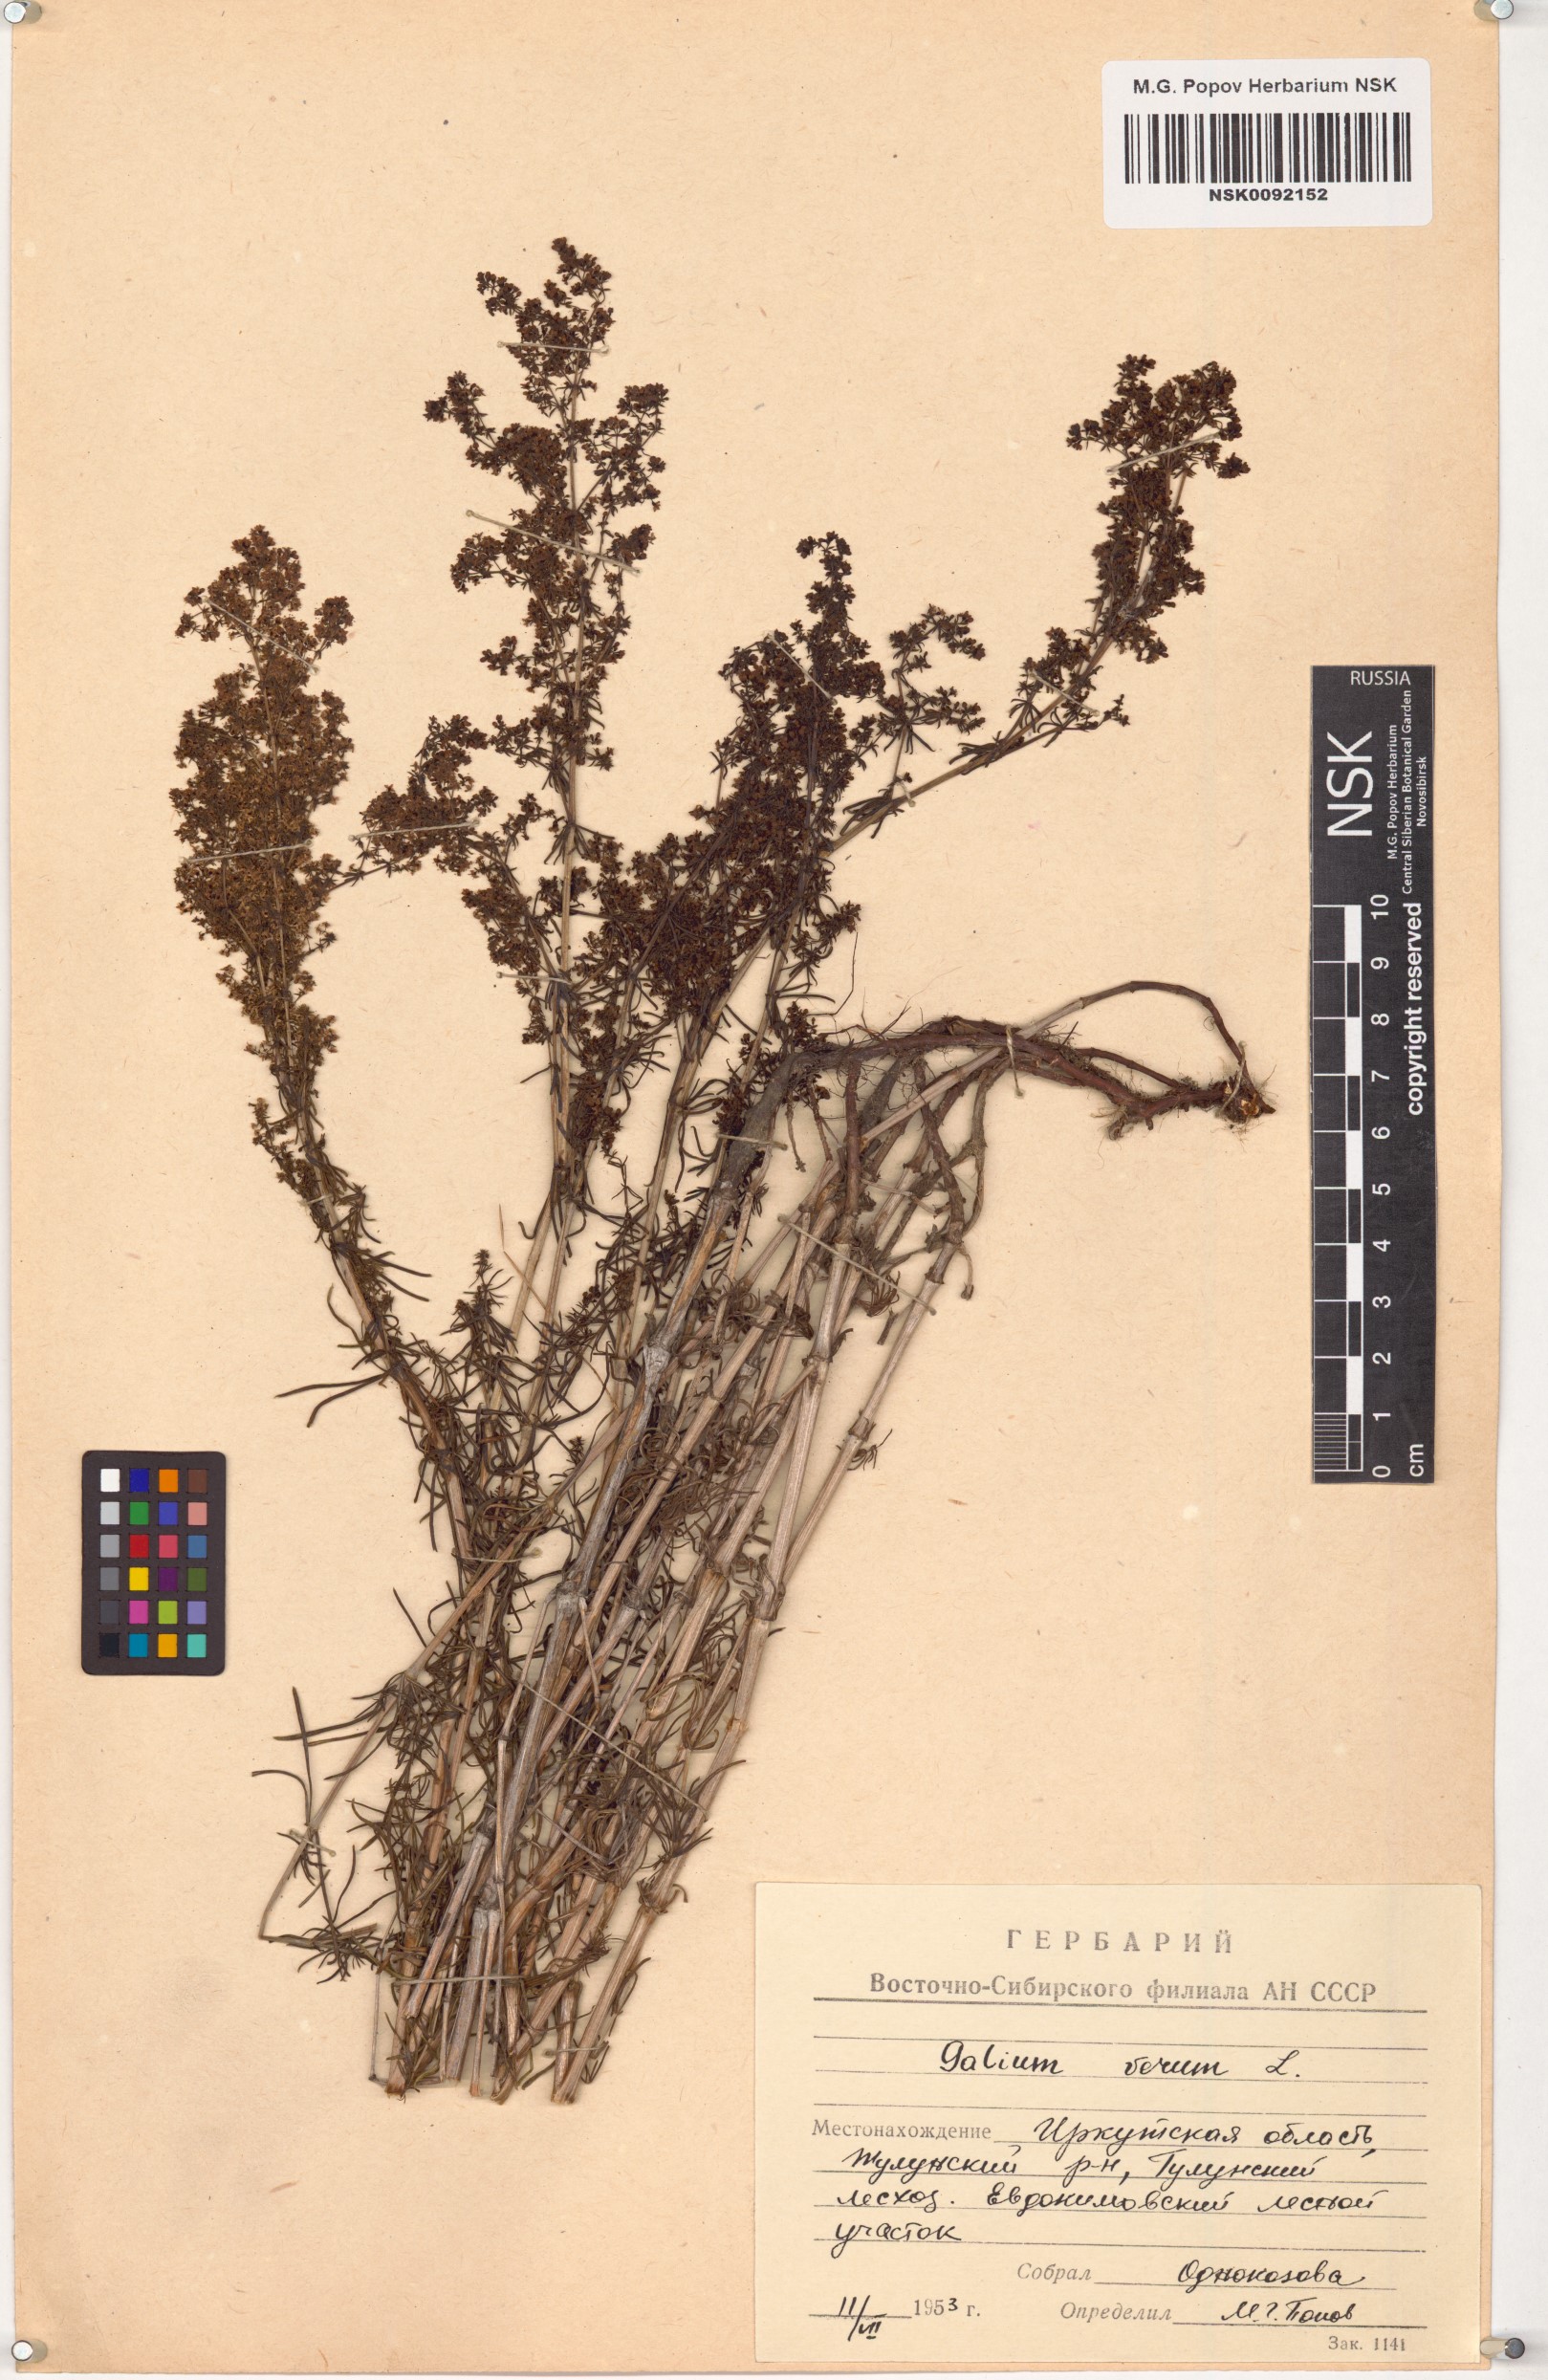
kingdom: Plantae
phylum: Tracheophyta
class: Magnoliopsida
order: Gentianales
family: Rubiaceae
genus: Galium
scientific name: Galium verum
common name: Lady's bedstraw
